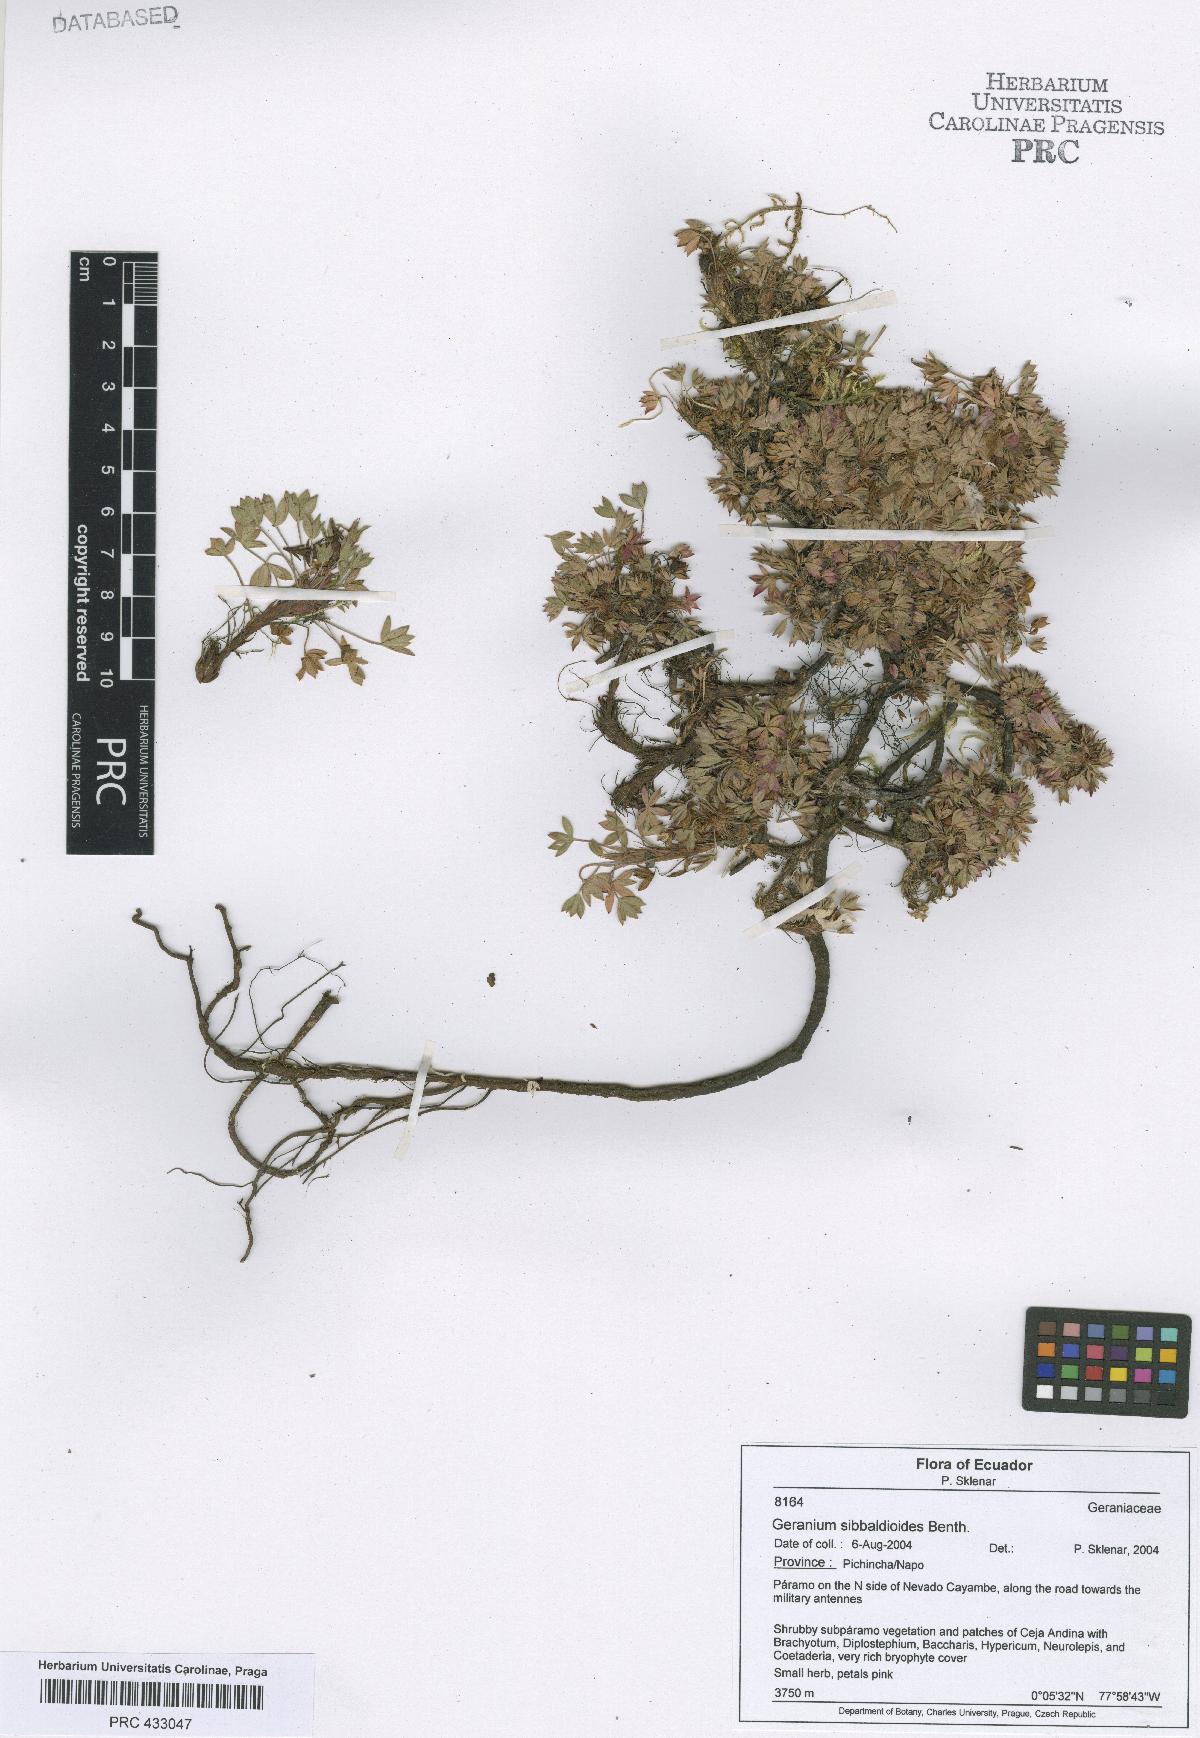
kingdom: Plantae
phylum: Tracheophyta
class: Magnoliopsida
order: Geraniales
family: Geraniaceae
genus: Geranium
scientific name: Geranium sibbaldioides
